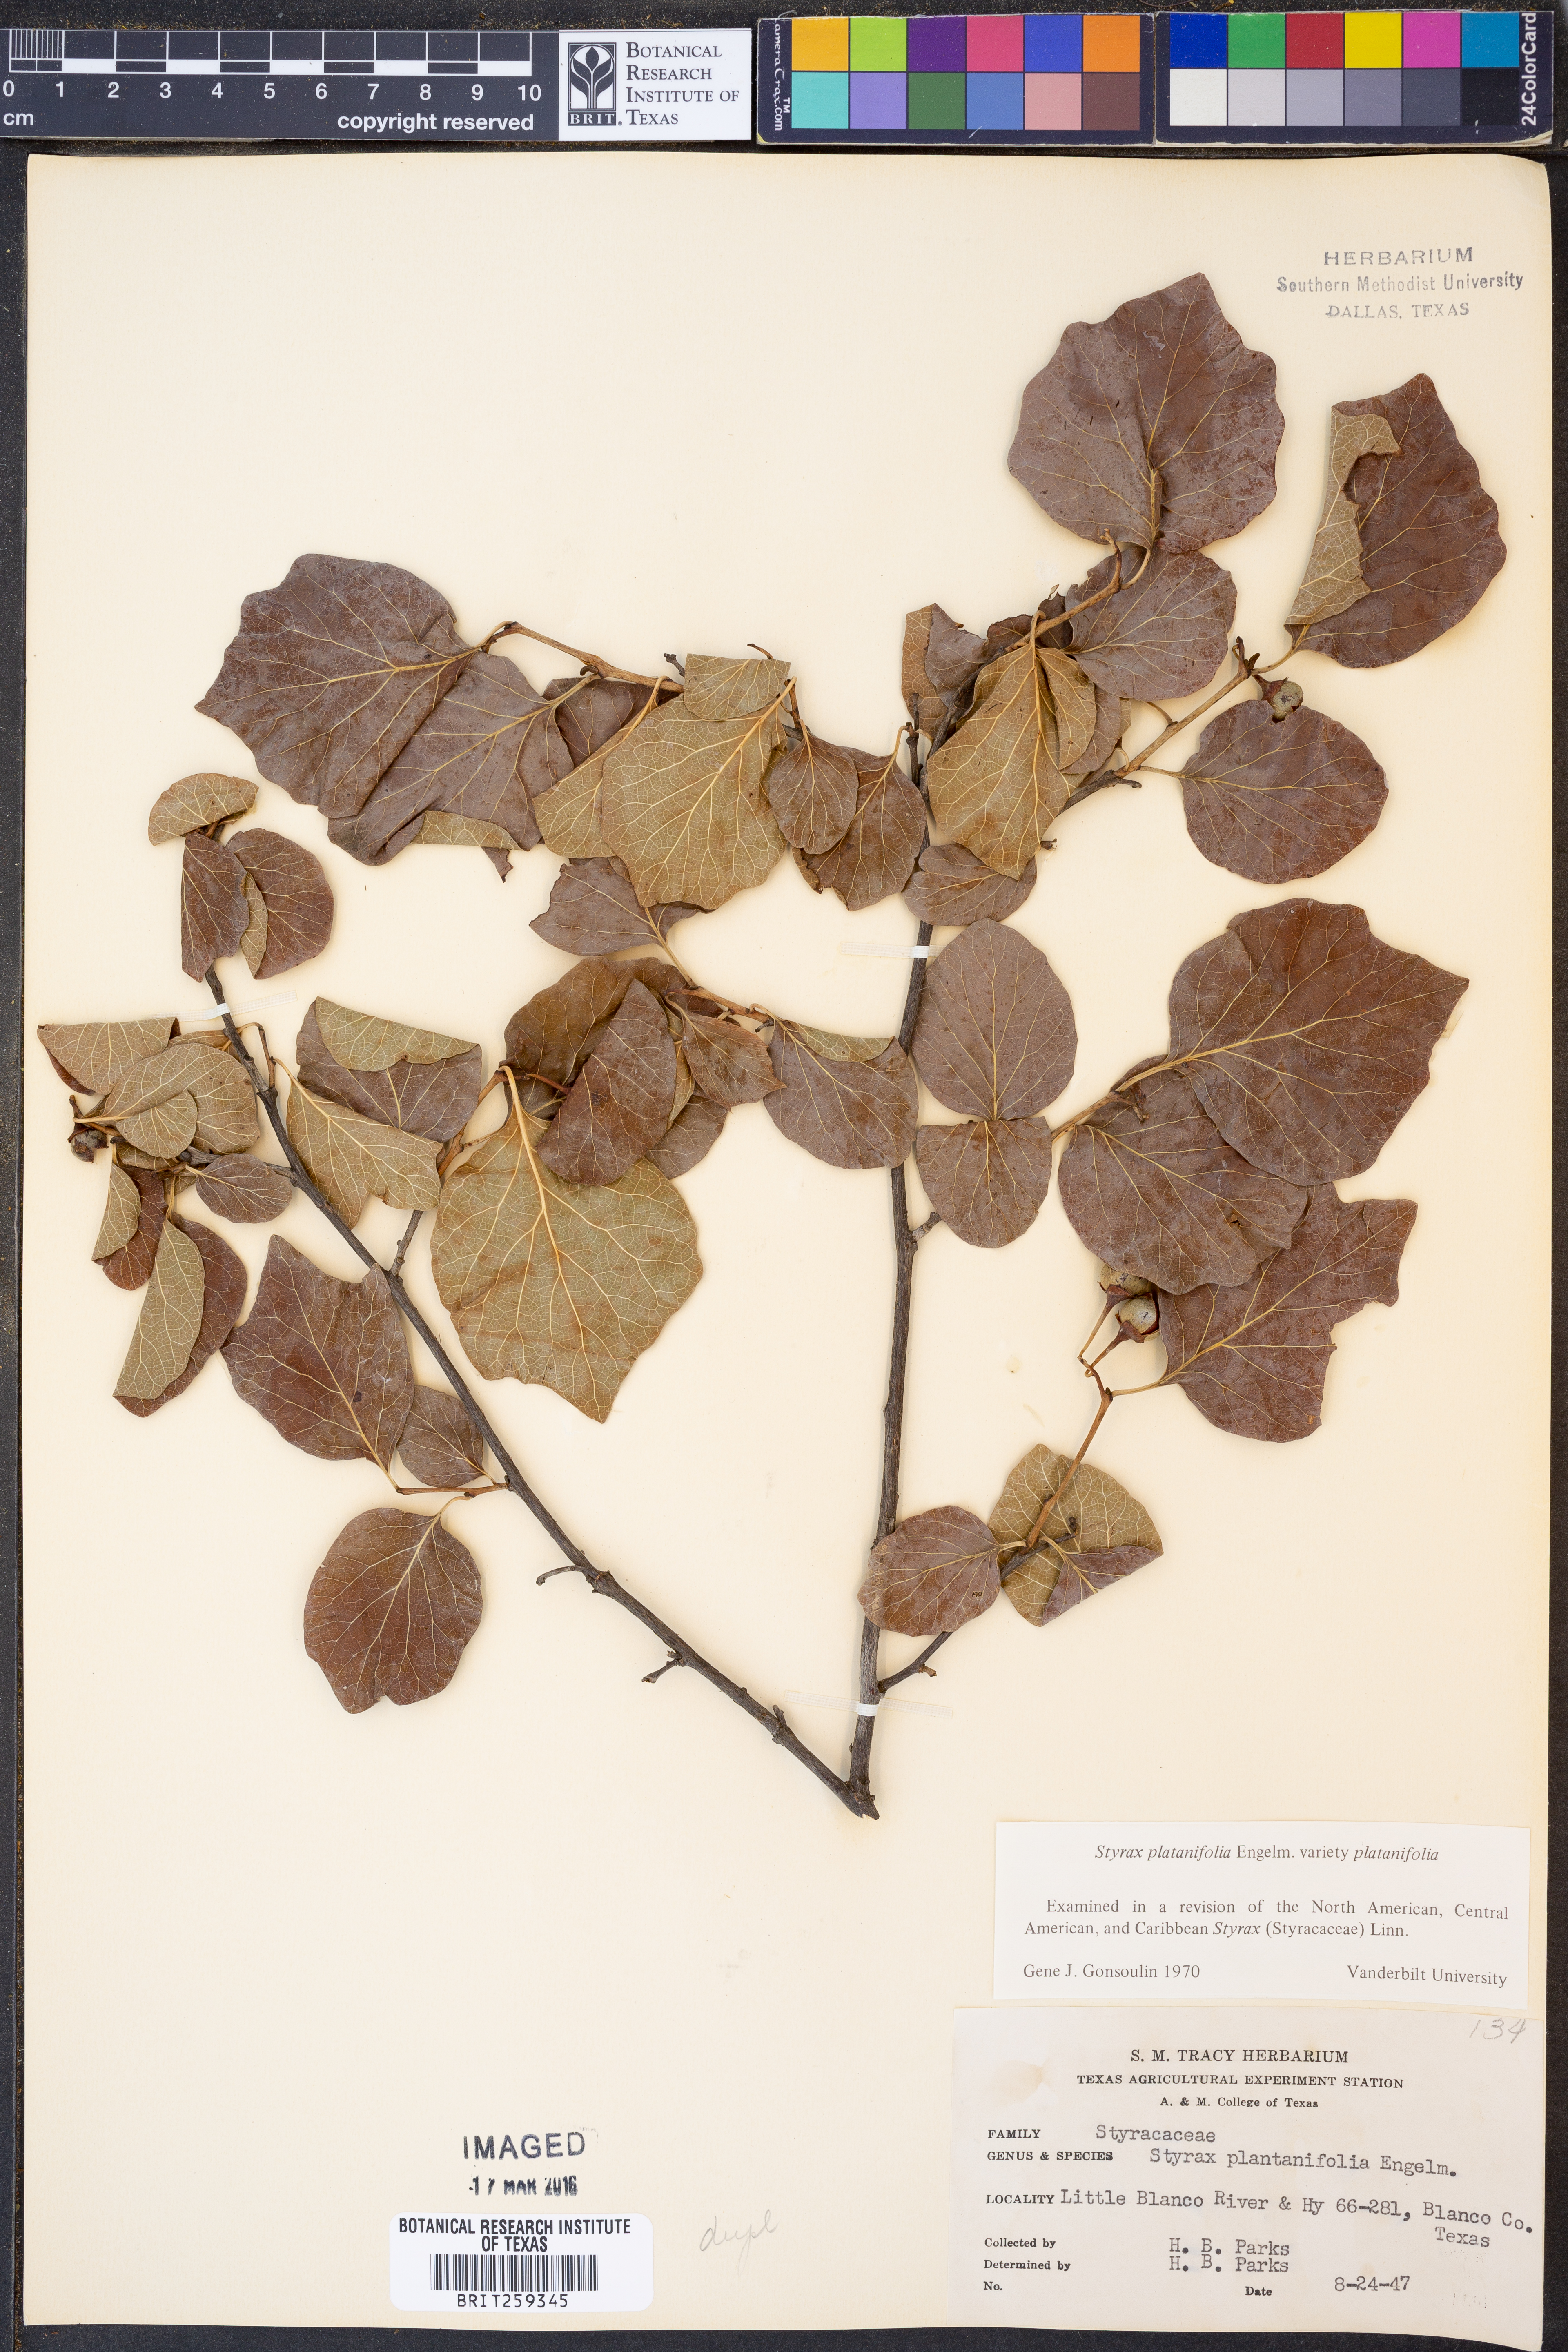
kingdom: Plantae
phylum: Tracheophyta
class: Magnoliopsida
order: Ericales
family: Styracaceae
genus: Styrax
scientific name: Styrax platanifolius
